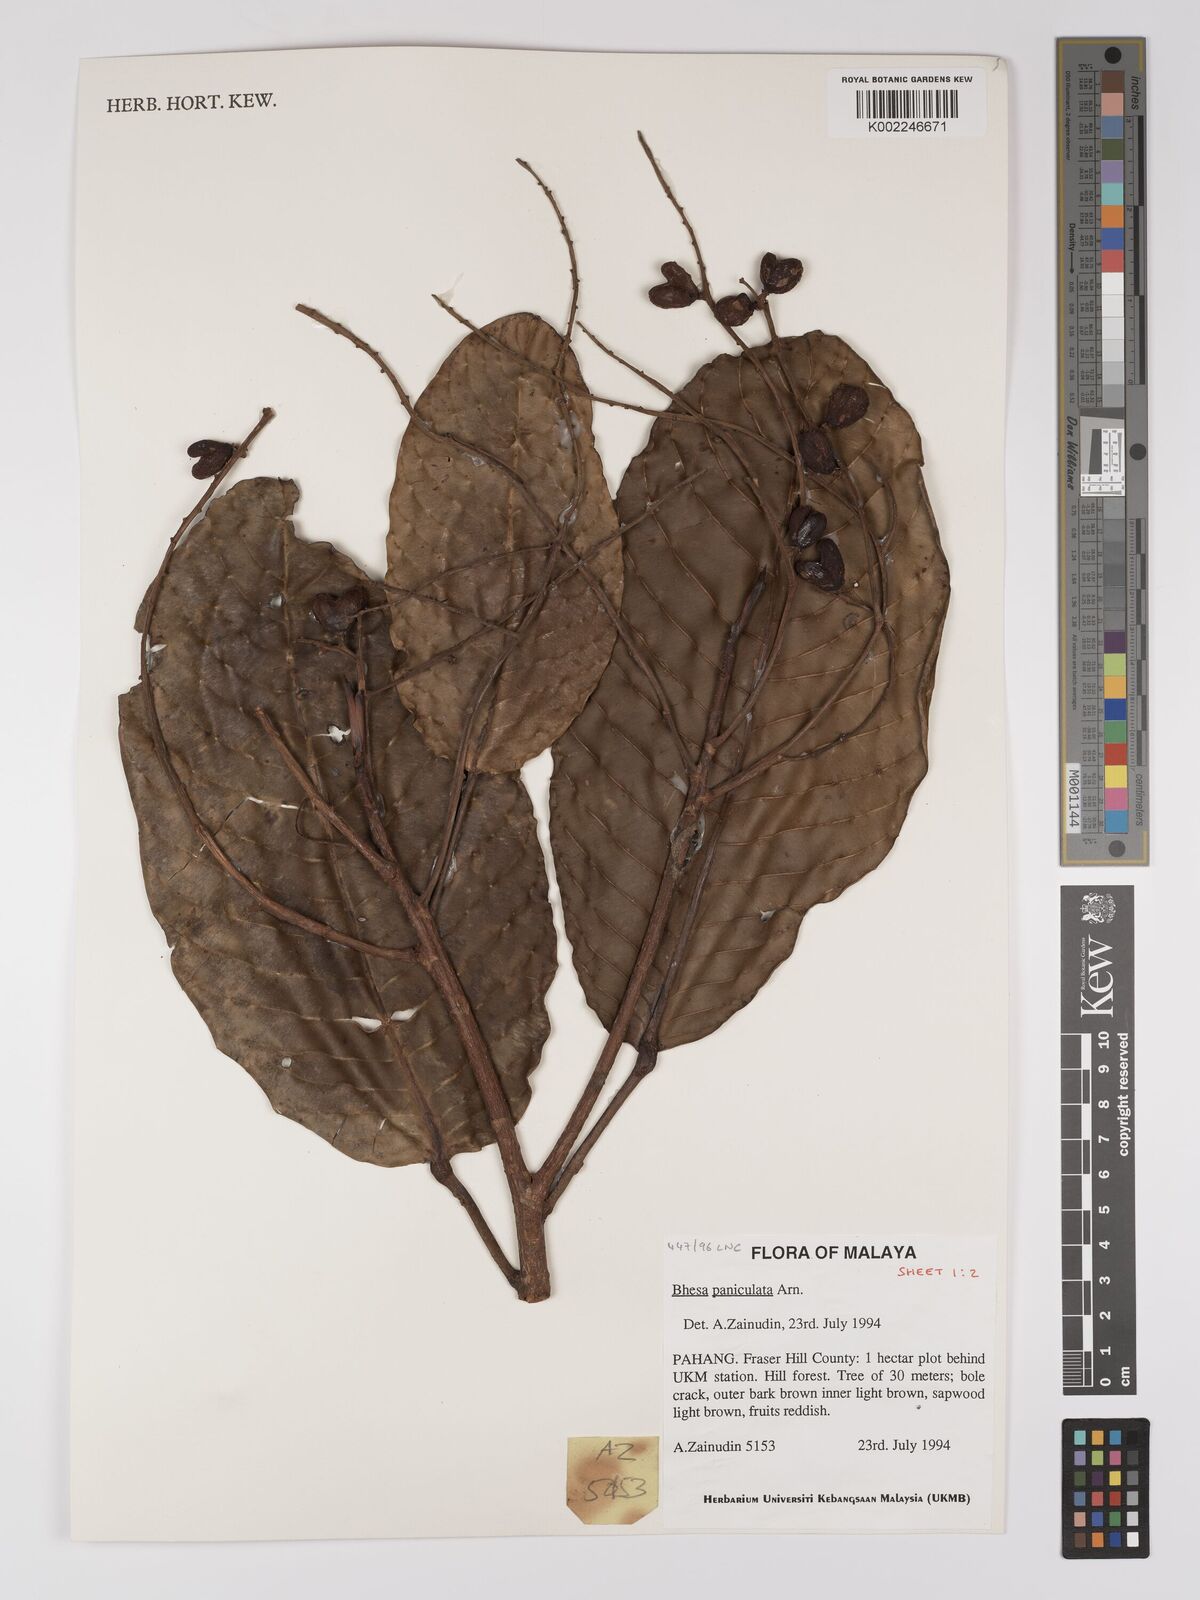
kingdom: Plantae
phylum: Tracheophyta
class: Magnoliopsida
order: Malpighiales
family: Centroplacaceae
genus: Bhesa
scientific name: Bhesa paniculata
